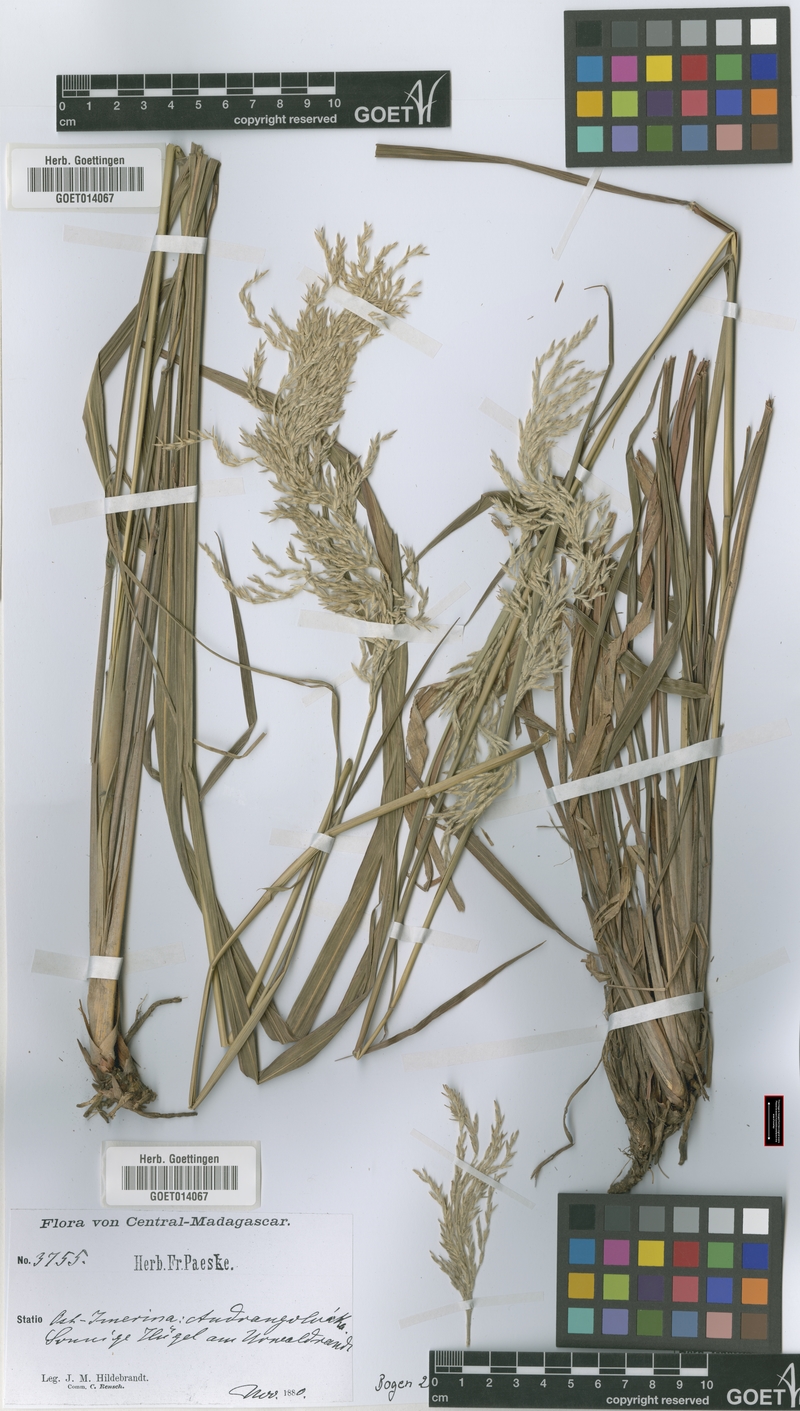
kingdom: Plantae
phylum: Tracheophyta
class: Liliopsida
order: Poales
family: Poaceae
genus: Lasiorhachis
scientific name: Lasiorhachis hildebrandtii
